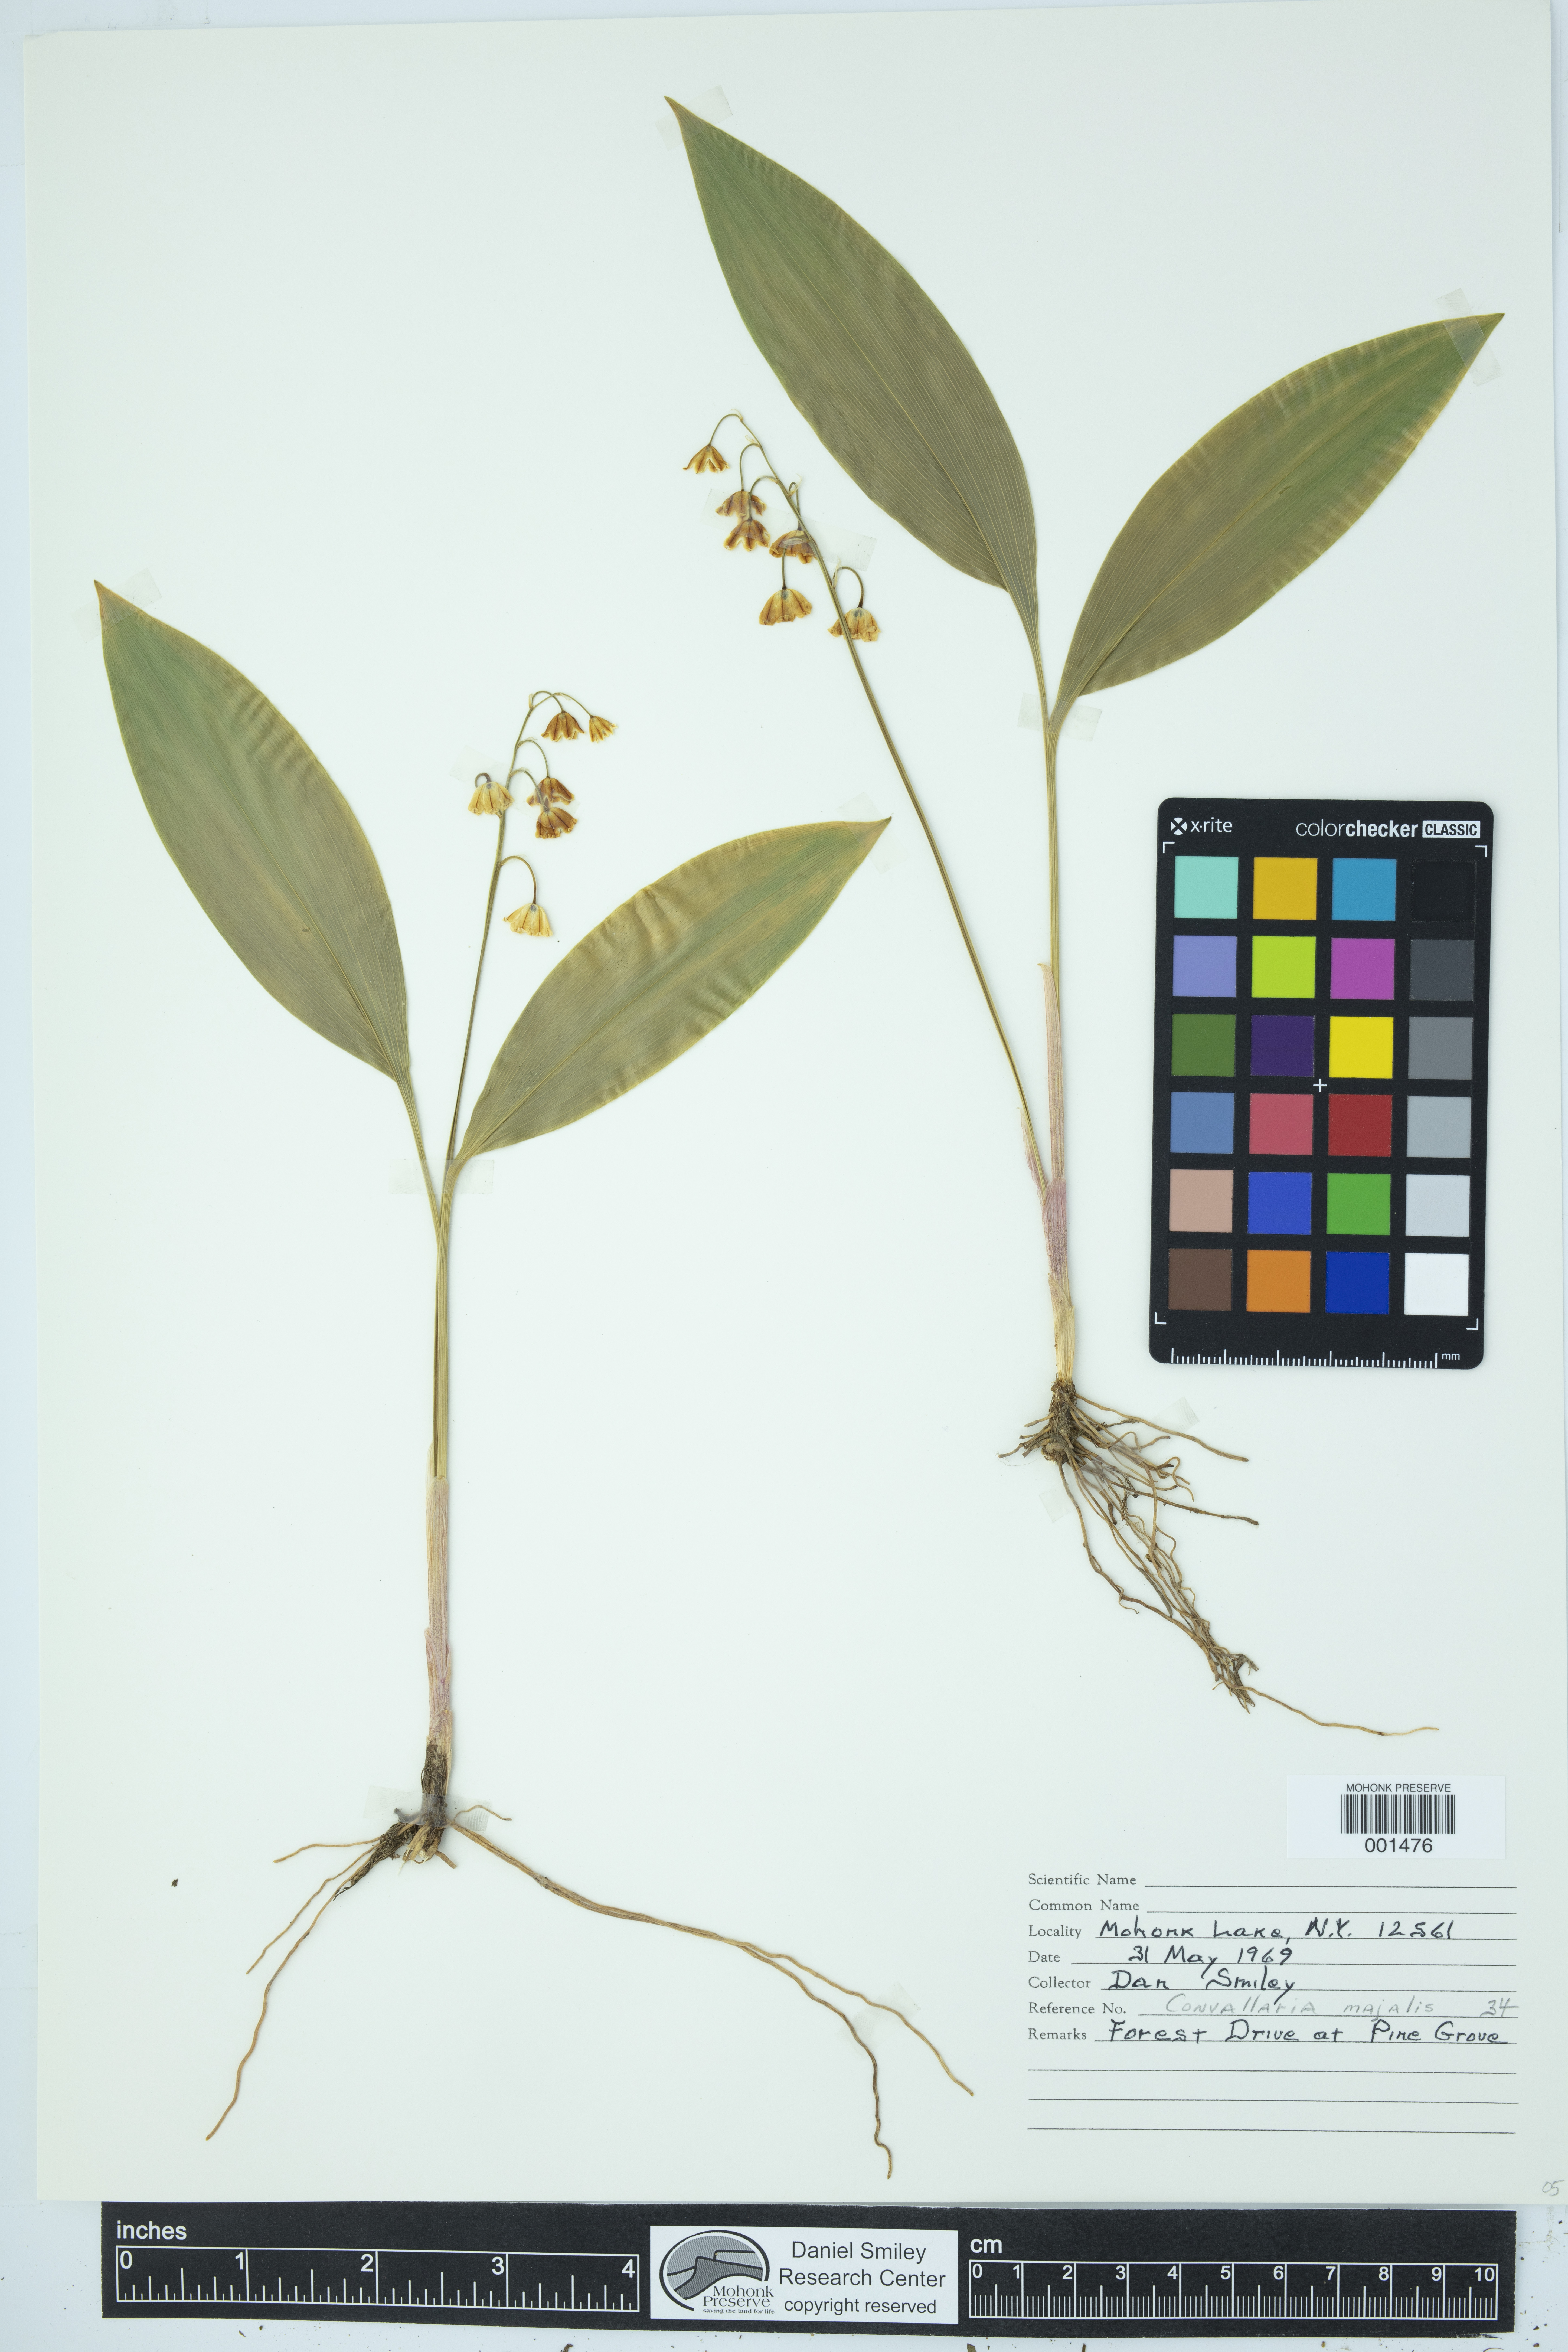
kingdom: Plantae
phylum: Tracheophyta
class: Liliopsida
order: Asparagales
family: Asparagaceae
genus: Convallaria
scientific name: Convallaria majalis
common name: Lily-of-the-valley
